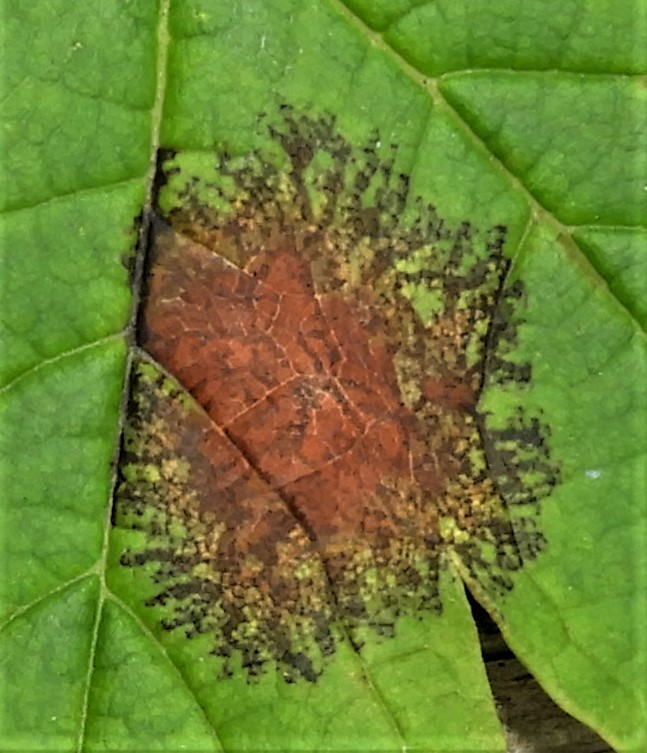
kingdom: Fungi
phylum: Ascomycota
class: Sordariomycetes
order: Diaporthales
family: Gnomoniaceae
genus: Pleuroceras
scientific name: Pleuroceras pseudoplatani
